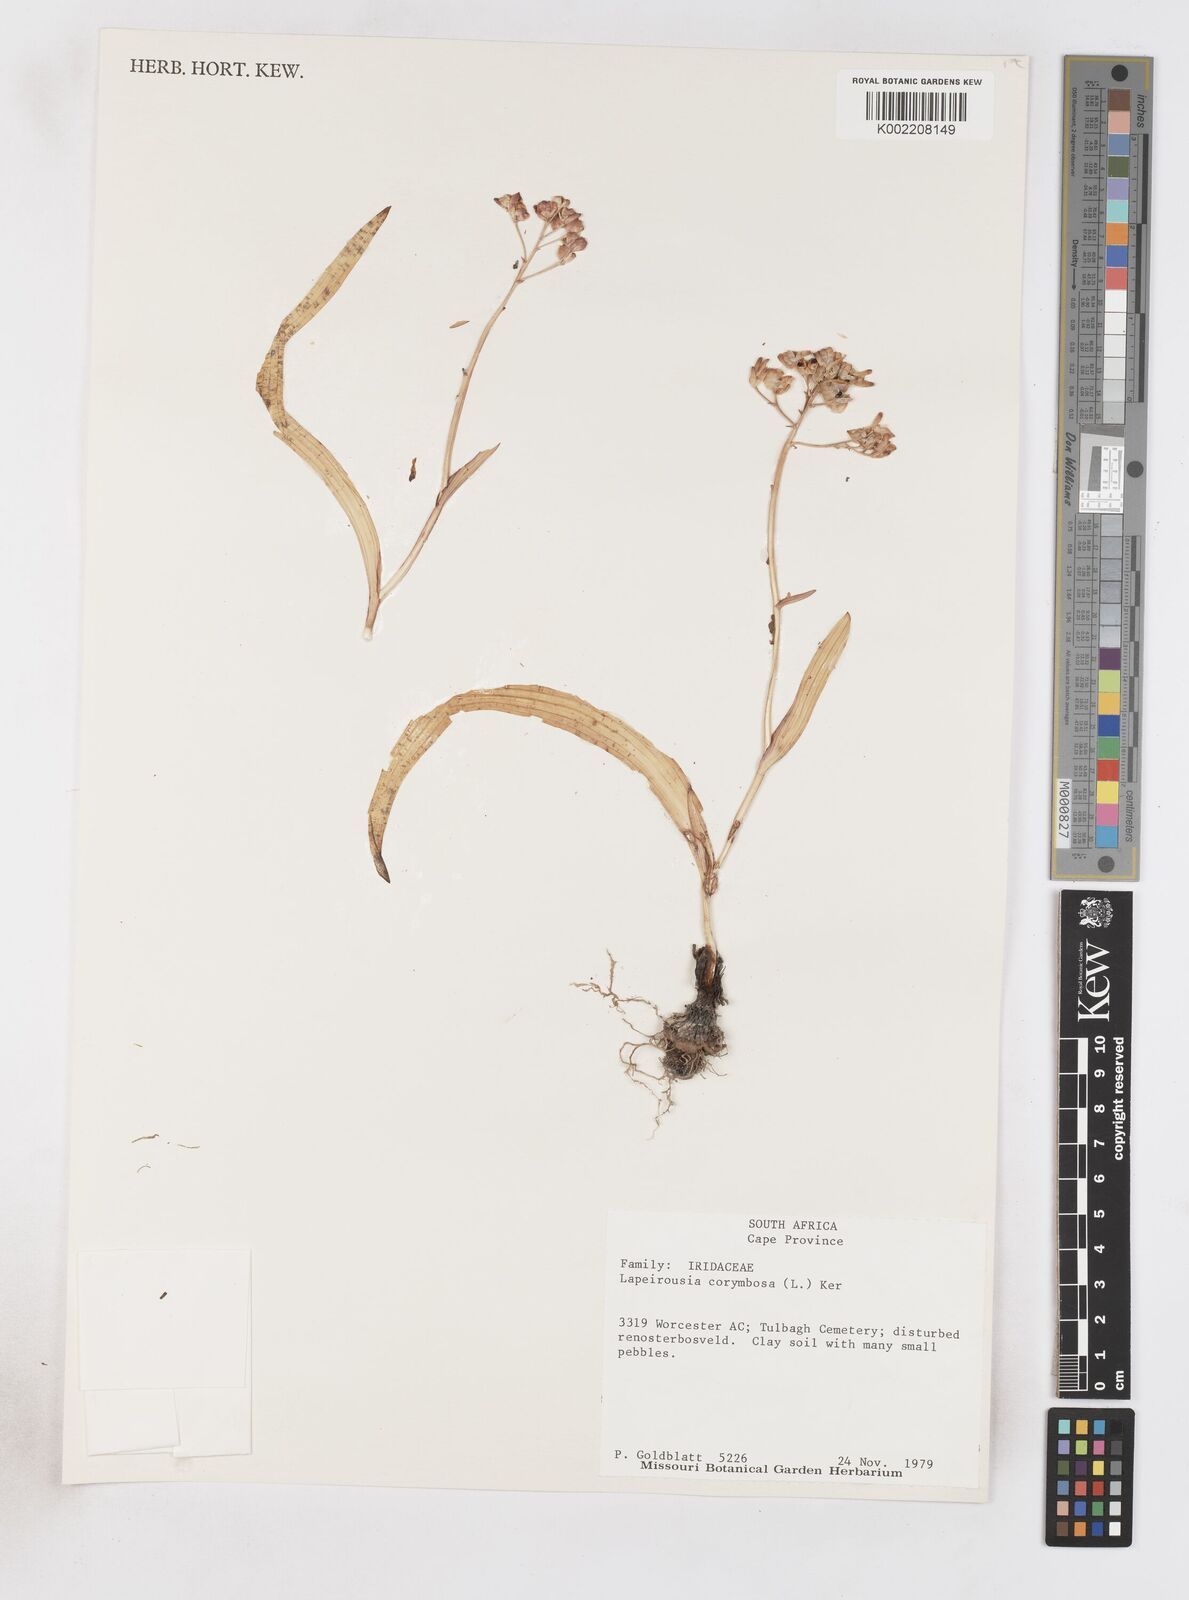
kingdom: Plantae
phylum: Tracheophyta
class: Liliopsida
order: Asparagales
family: Iridaceae
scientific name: Iridaceae
